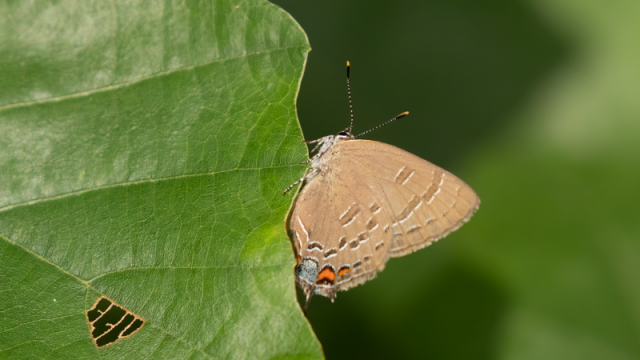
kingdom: Animalia
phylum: Arthropoda
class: Insecta
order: Lepidoptera
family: Lycaenidae
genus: Satyrium
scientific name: Satyrium calanus
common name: Banded Hairstreak
